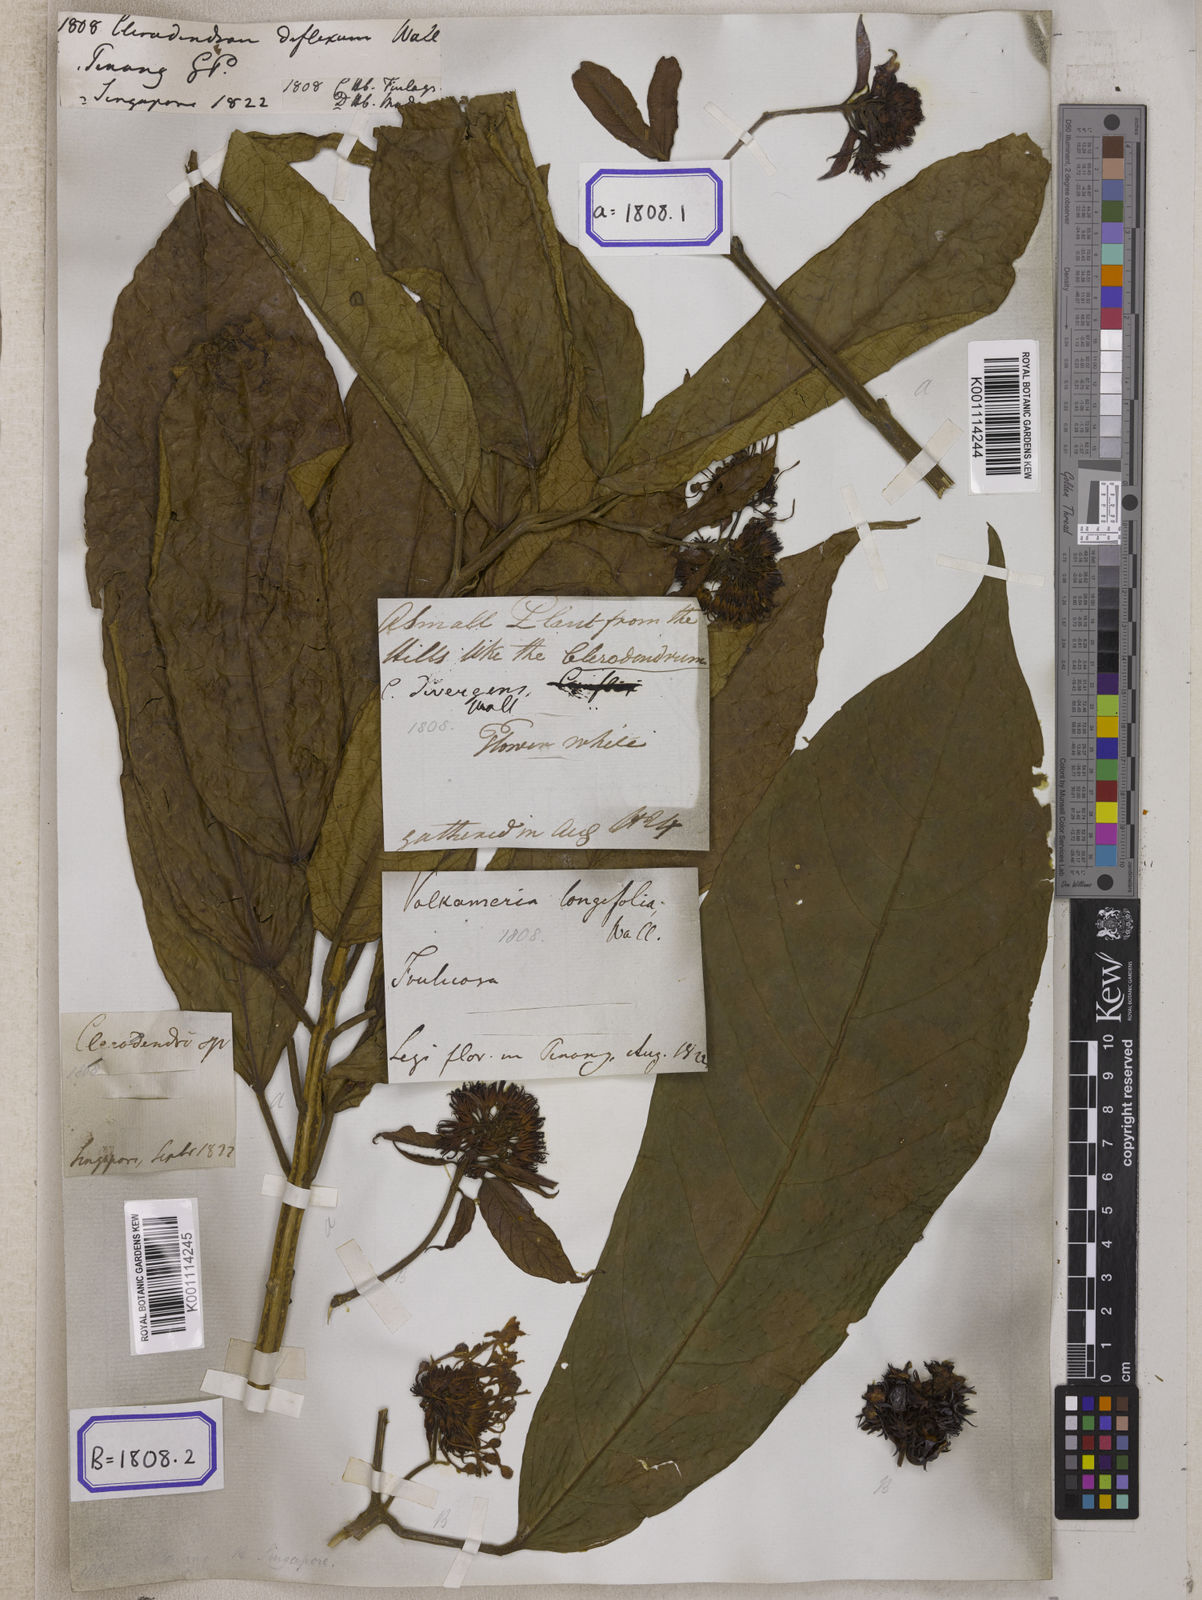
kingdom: Plantae
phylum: Tracheophyta
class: Magnoliopsida
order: Lamiales
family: Lamiaceae
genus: Clerodendrum
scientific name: Clerodendrum deflexum
